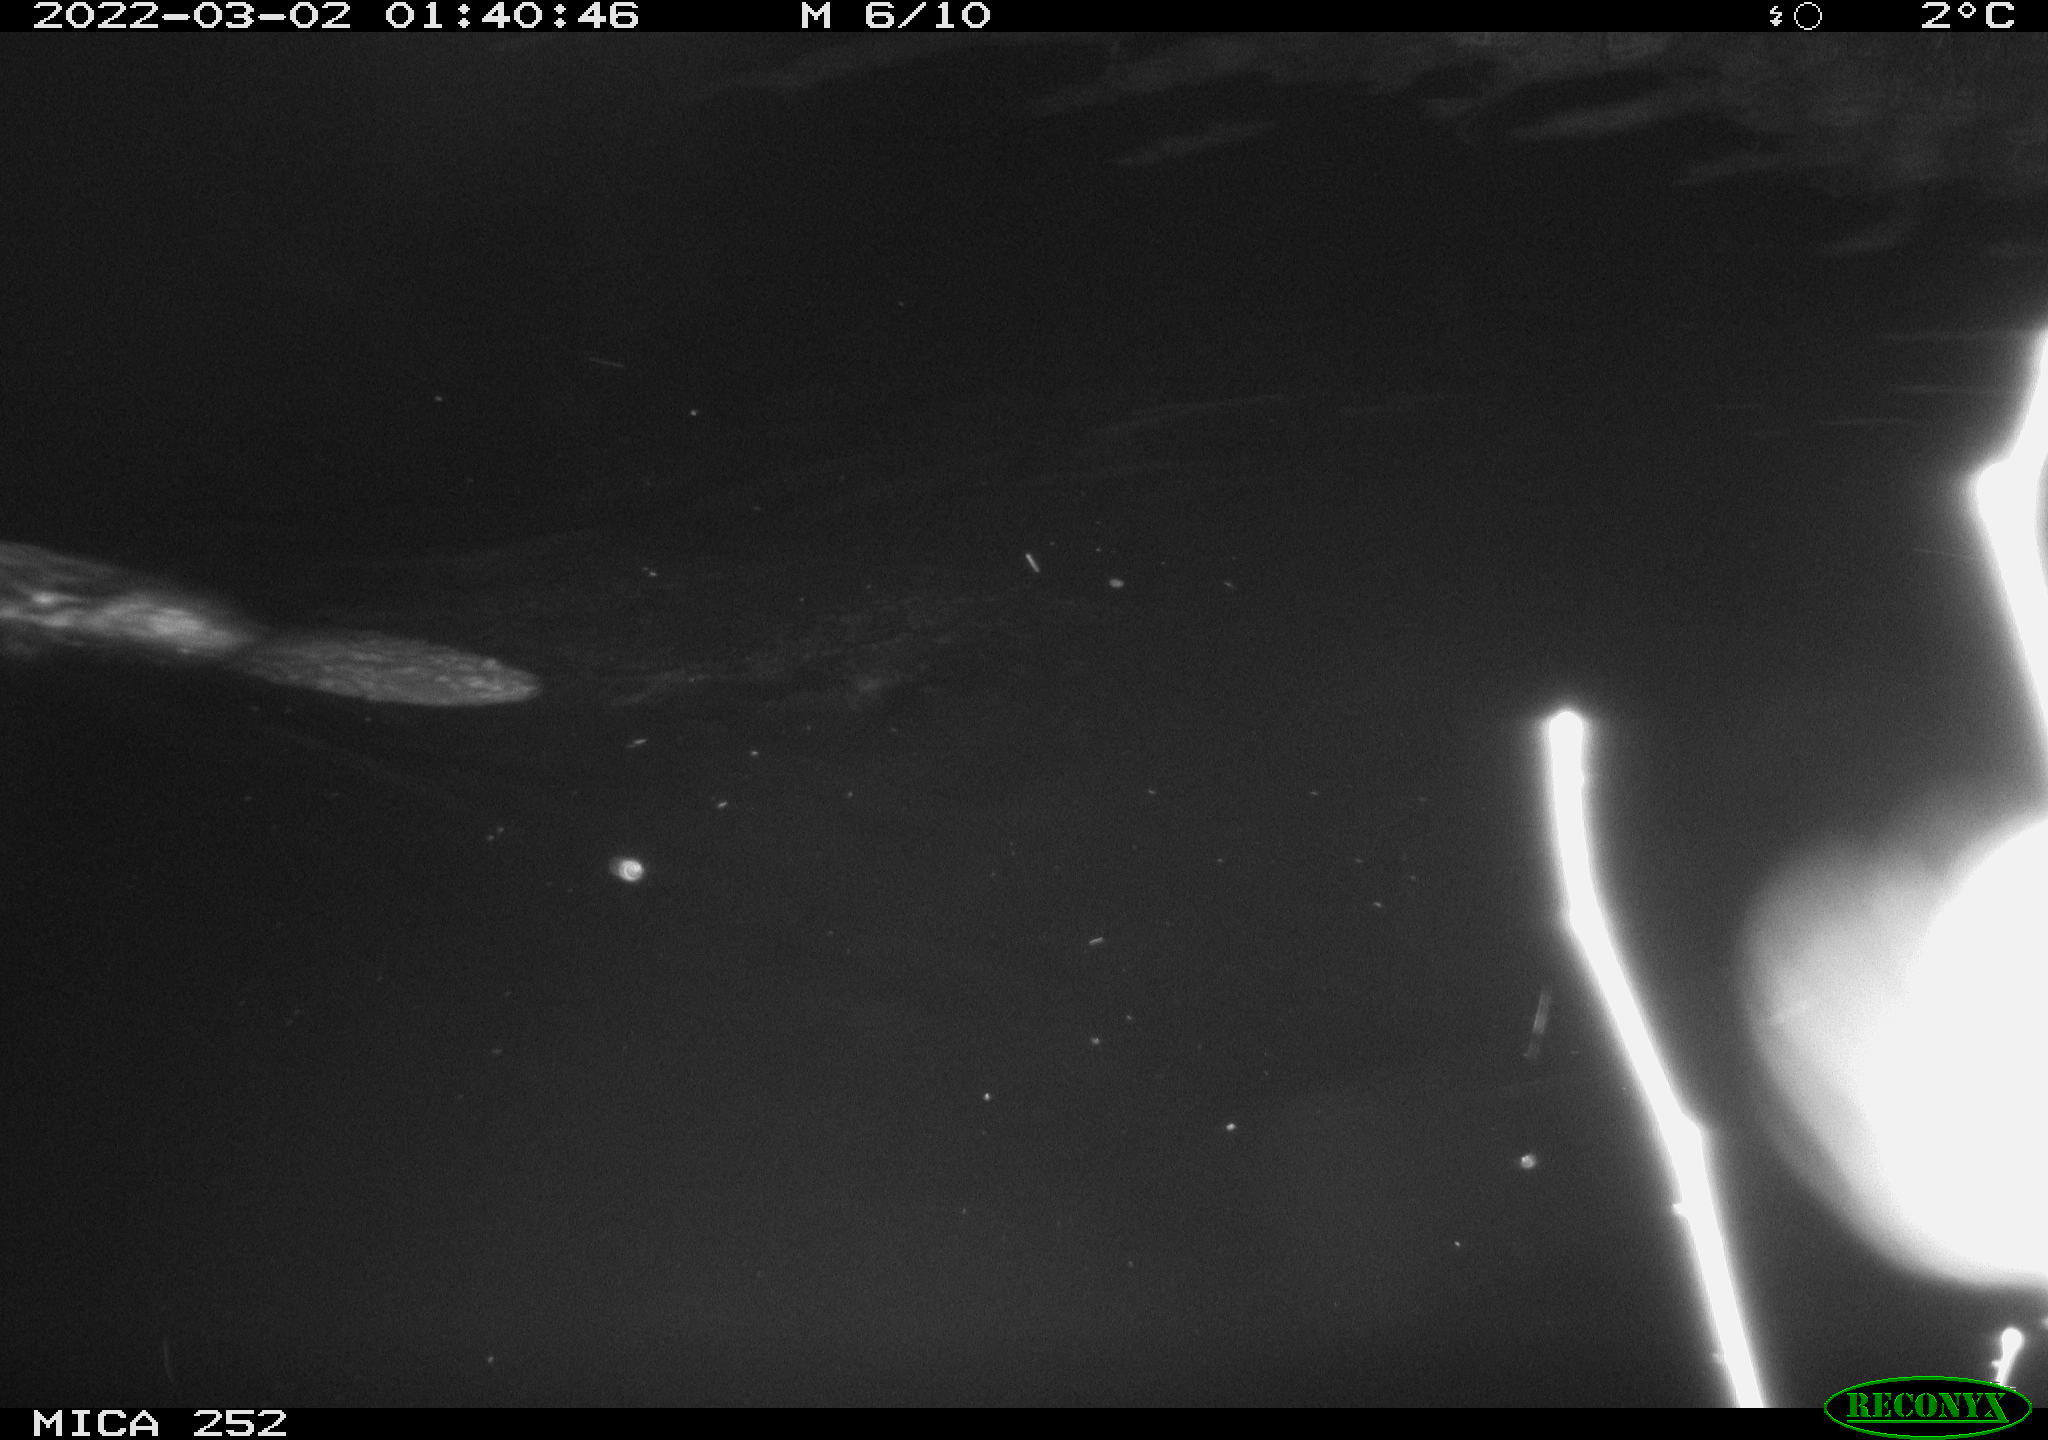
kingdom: Animalia
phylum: Chordata
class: Mammalia
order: Rodentia
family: Castoridae
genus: Castor
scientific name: Castor fiber
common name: Eurasian beaver
